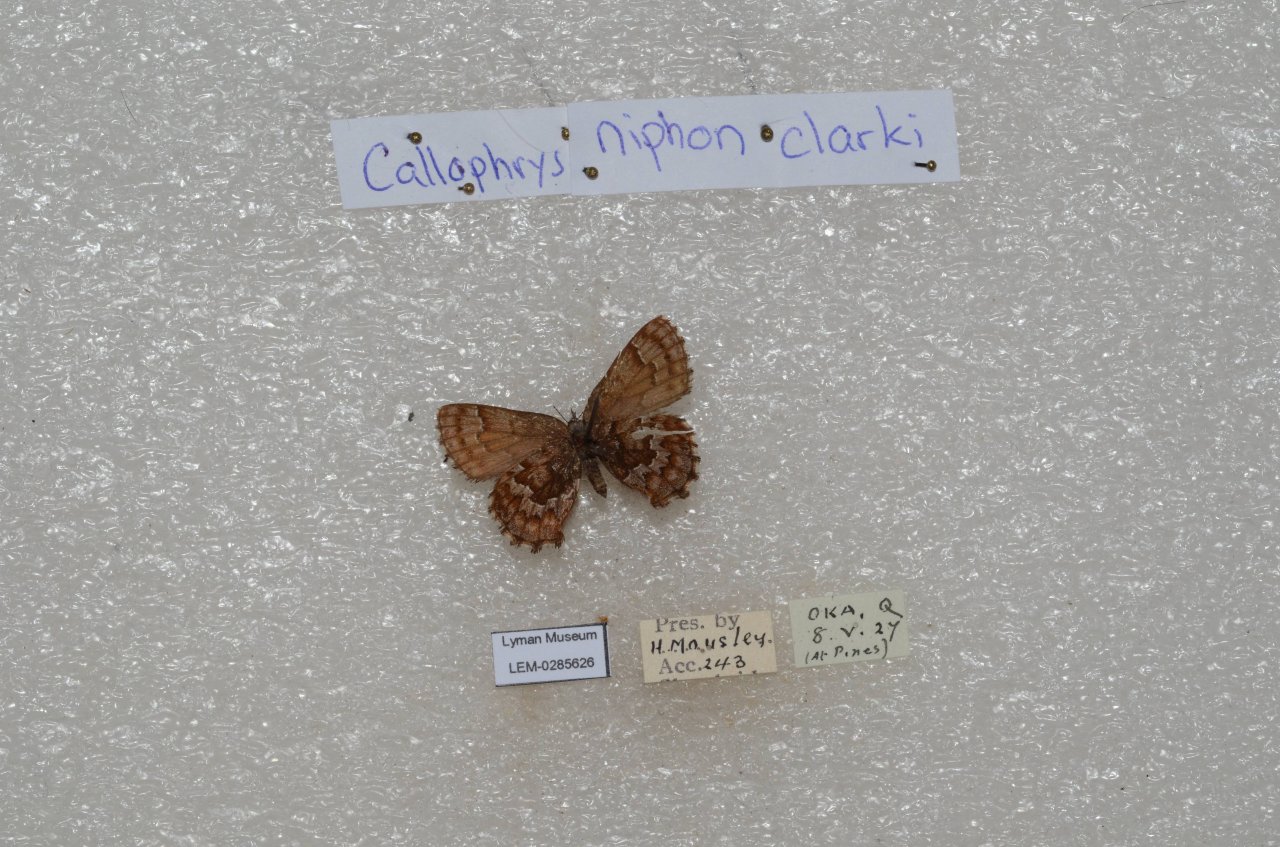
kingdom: Animalia
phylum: Arthropoda
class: Insecta
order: Lepidoptera
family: Lycaenidae
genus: Incisalia
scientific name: Incisalia niphon
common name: Eastern Pine Elfin
